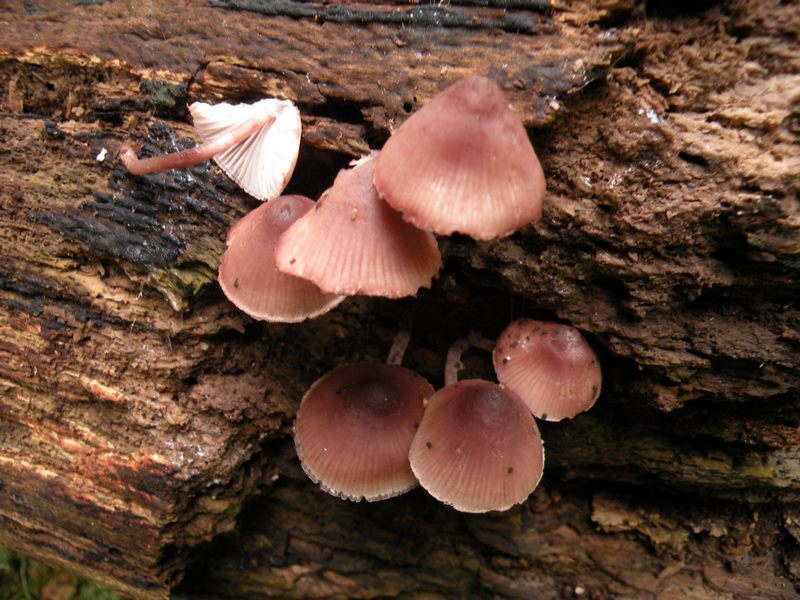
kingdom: Fungi
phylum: Basidiomycota
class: Agaricomycetes
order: Agaricales
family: Mycenaceae
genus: Mycena
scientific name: Mycena haematopus
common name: blødende huesvamp
